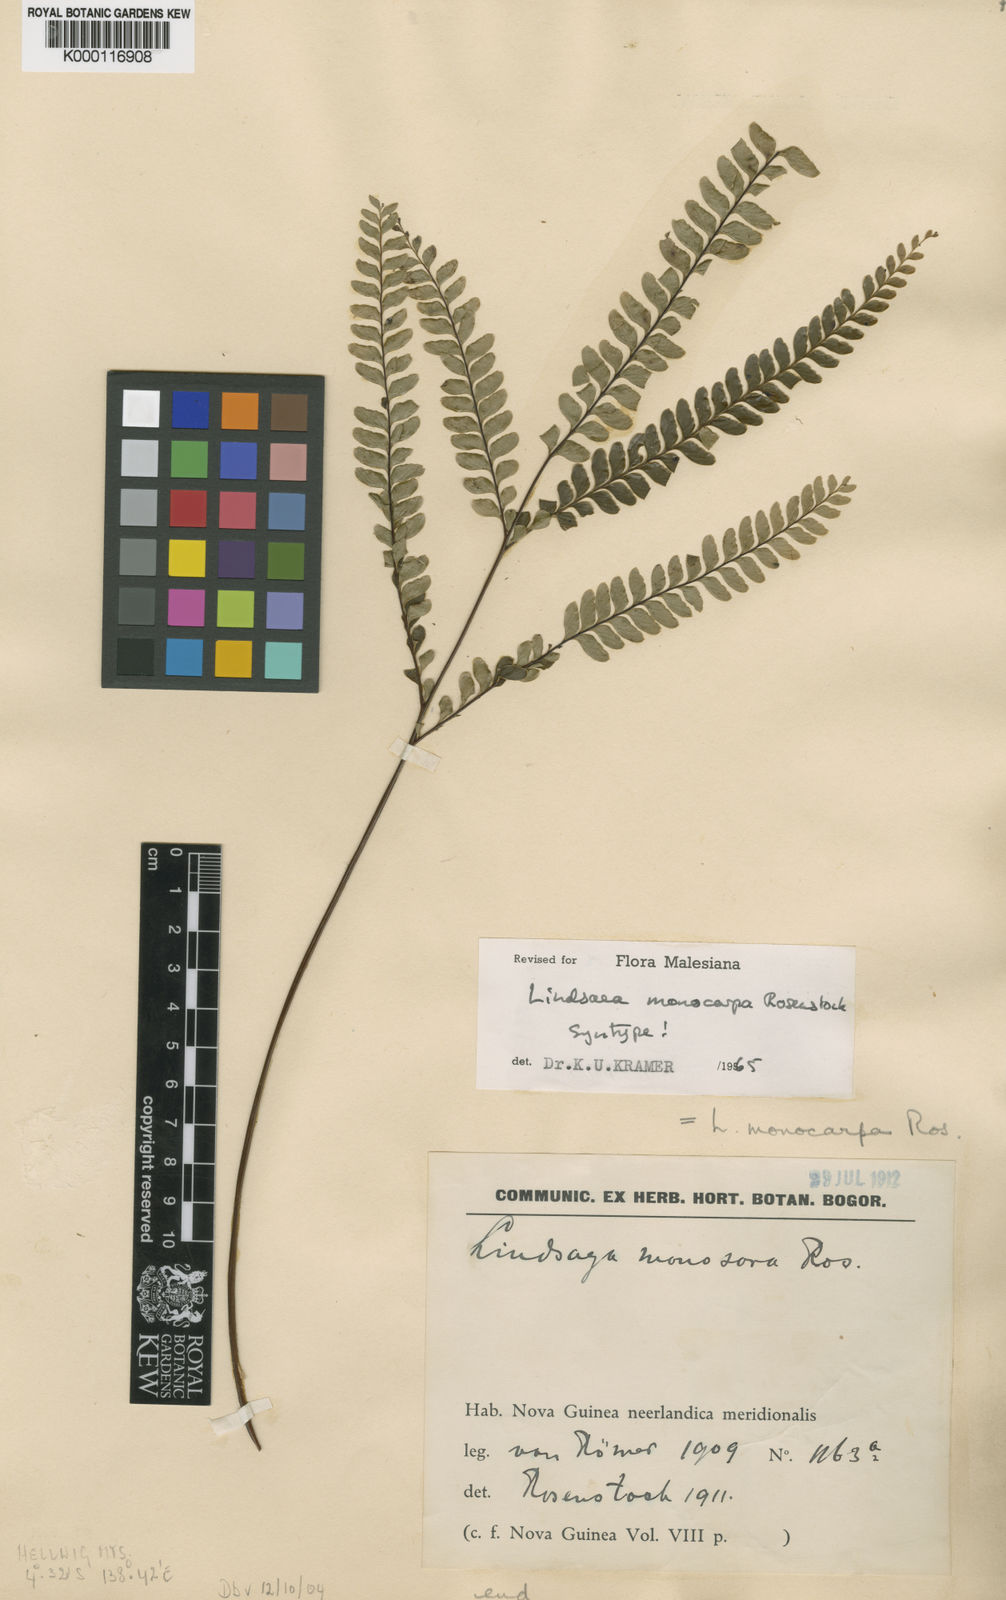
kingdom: Plantae
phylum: Tracheophyta
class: Polypodiopsida
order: Polypodiales
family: Lindsaeaceae
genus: Lindsaea
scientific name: Lindsaea monocarpa
